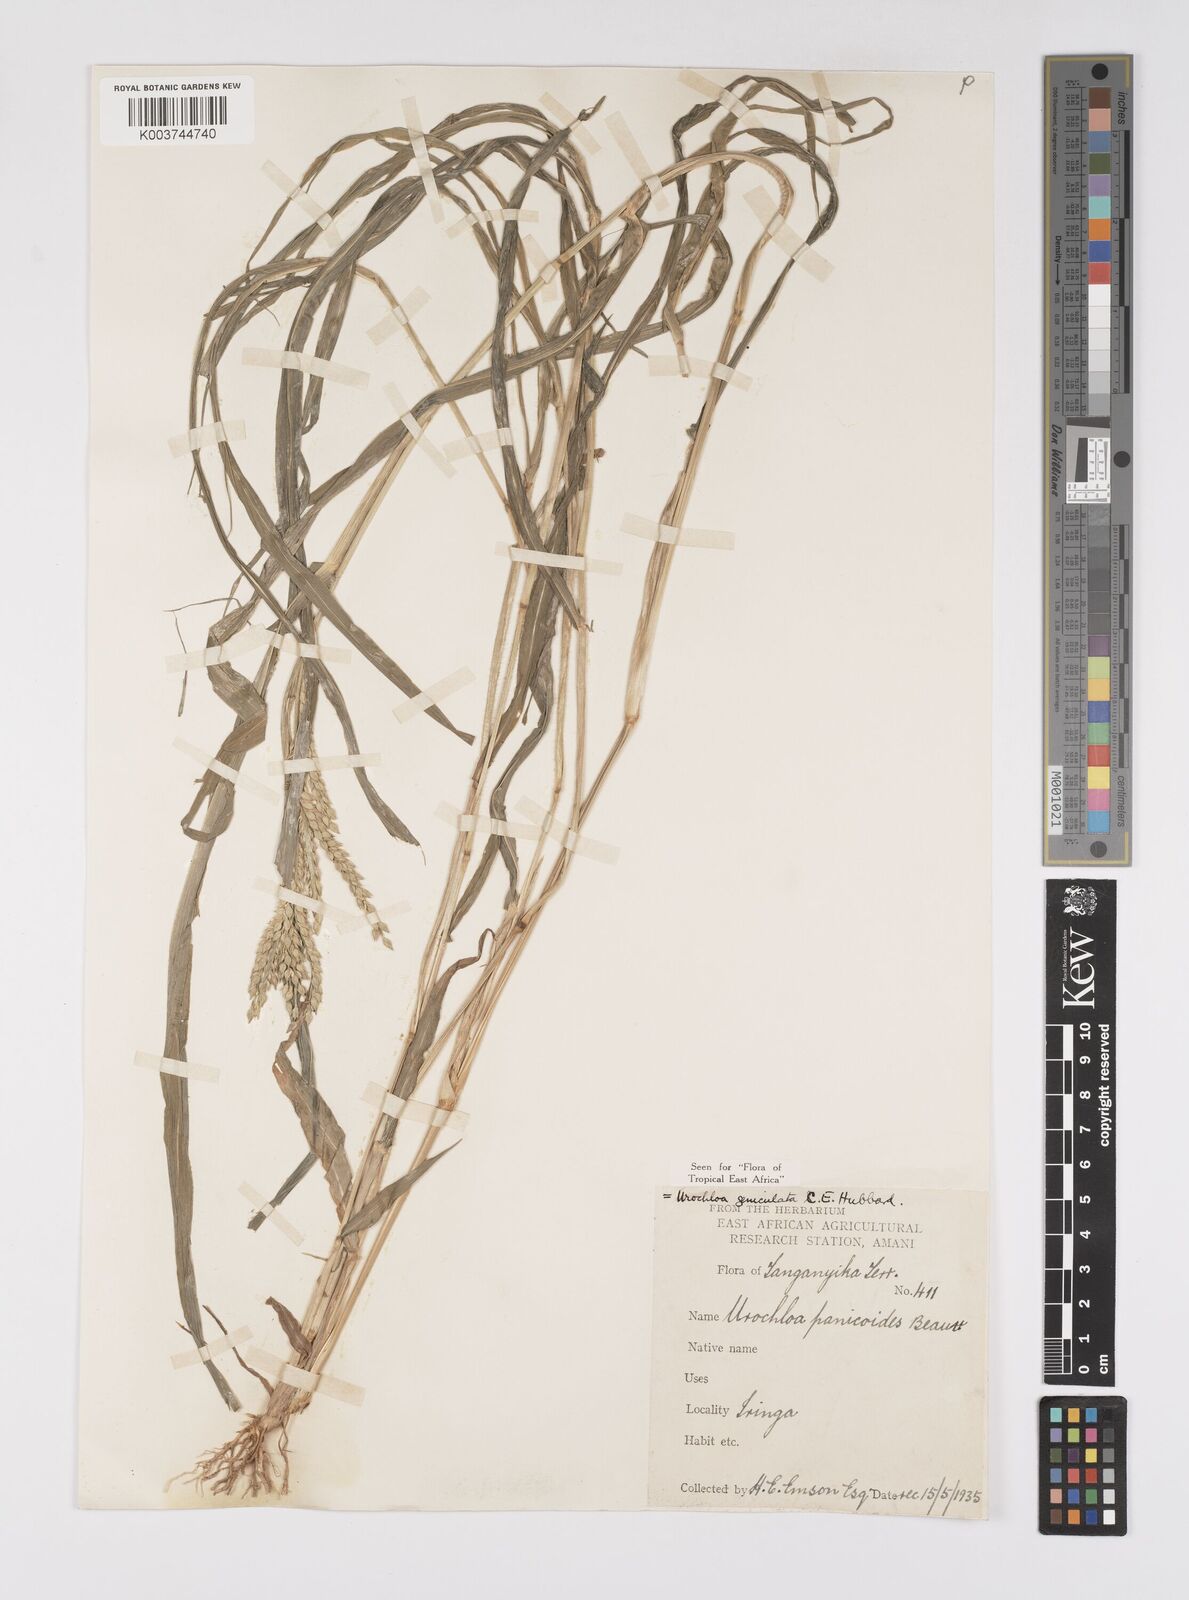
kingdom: Plantae
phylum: Tracheophyta
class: Liliopsida
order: Poales
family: Poaceae
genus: Urochloa
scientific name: Urochloa brachyura
